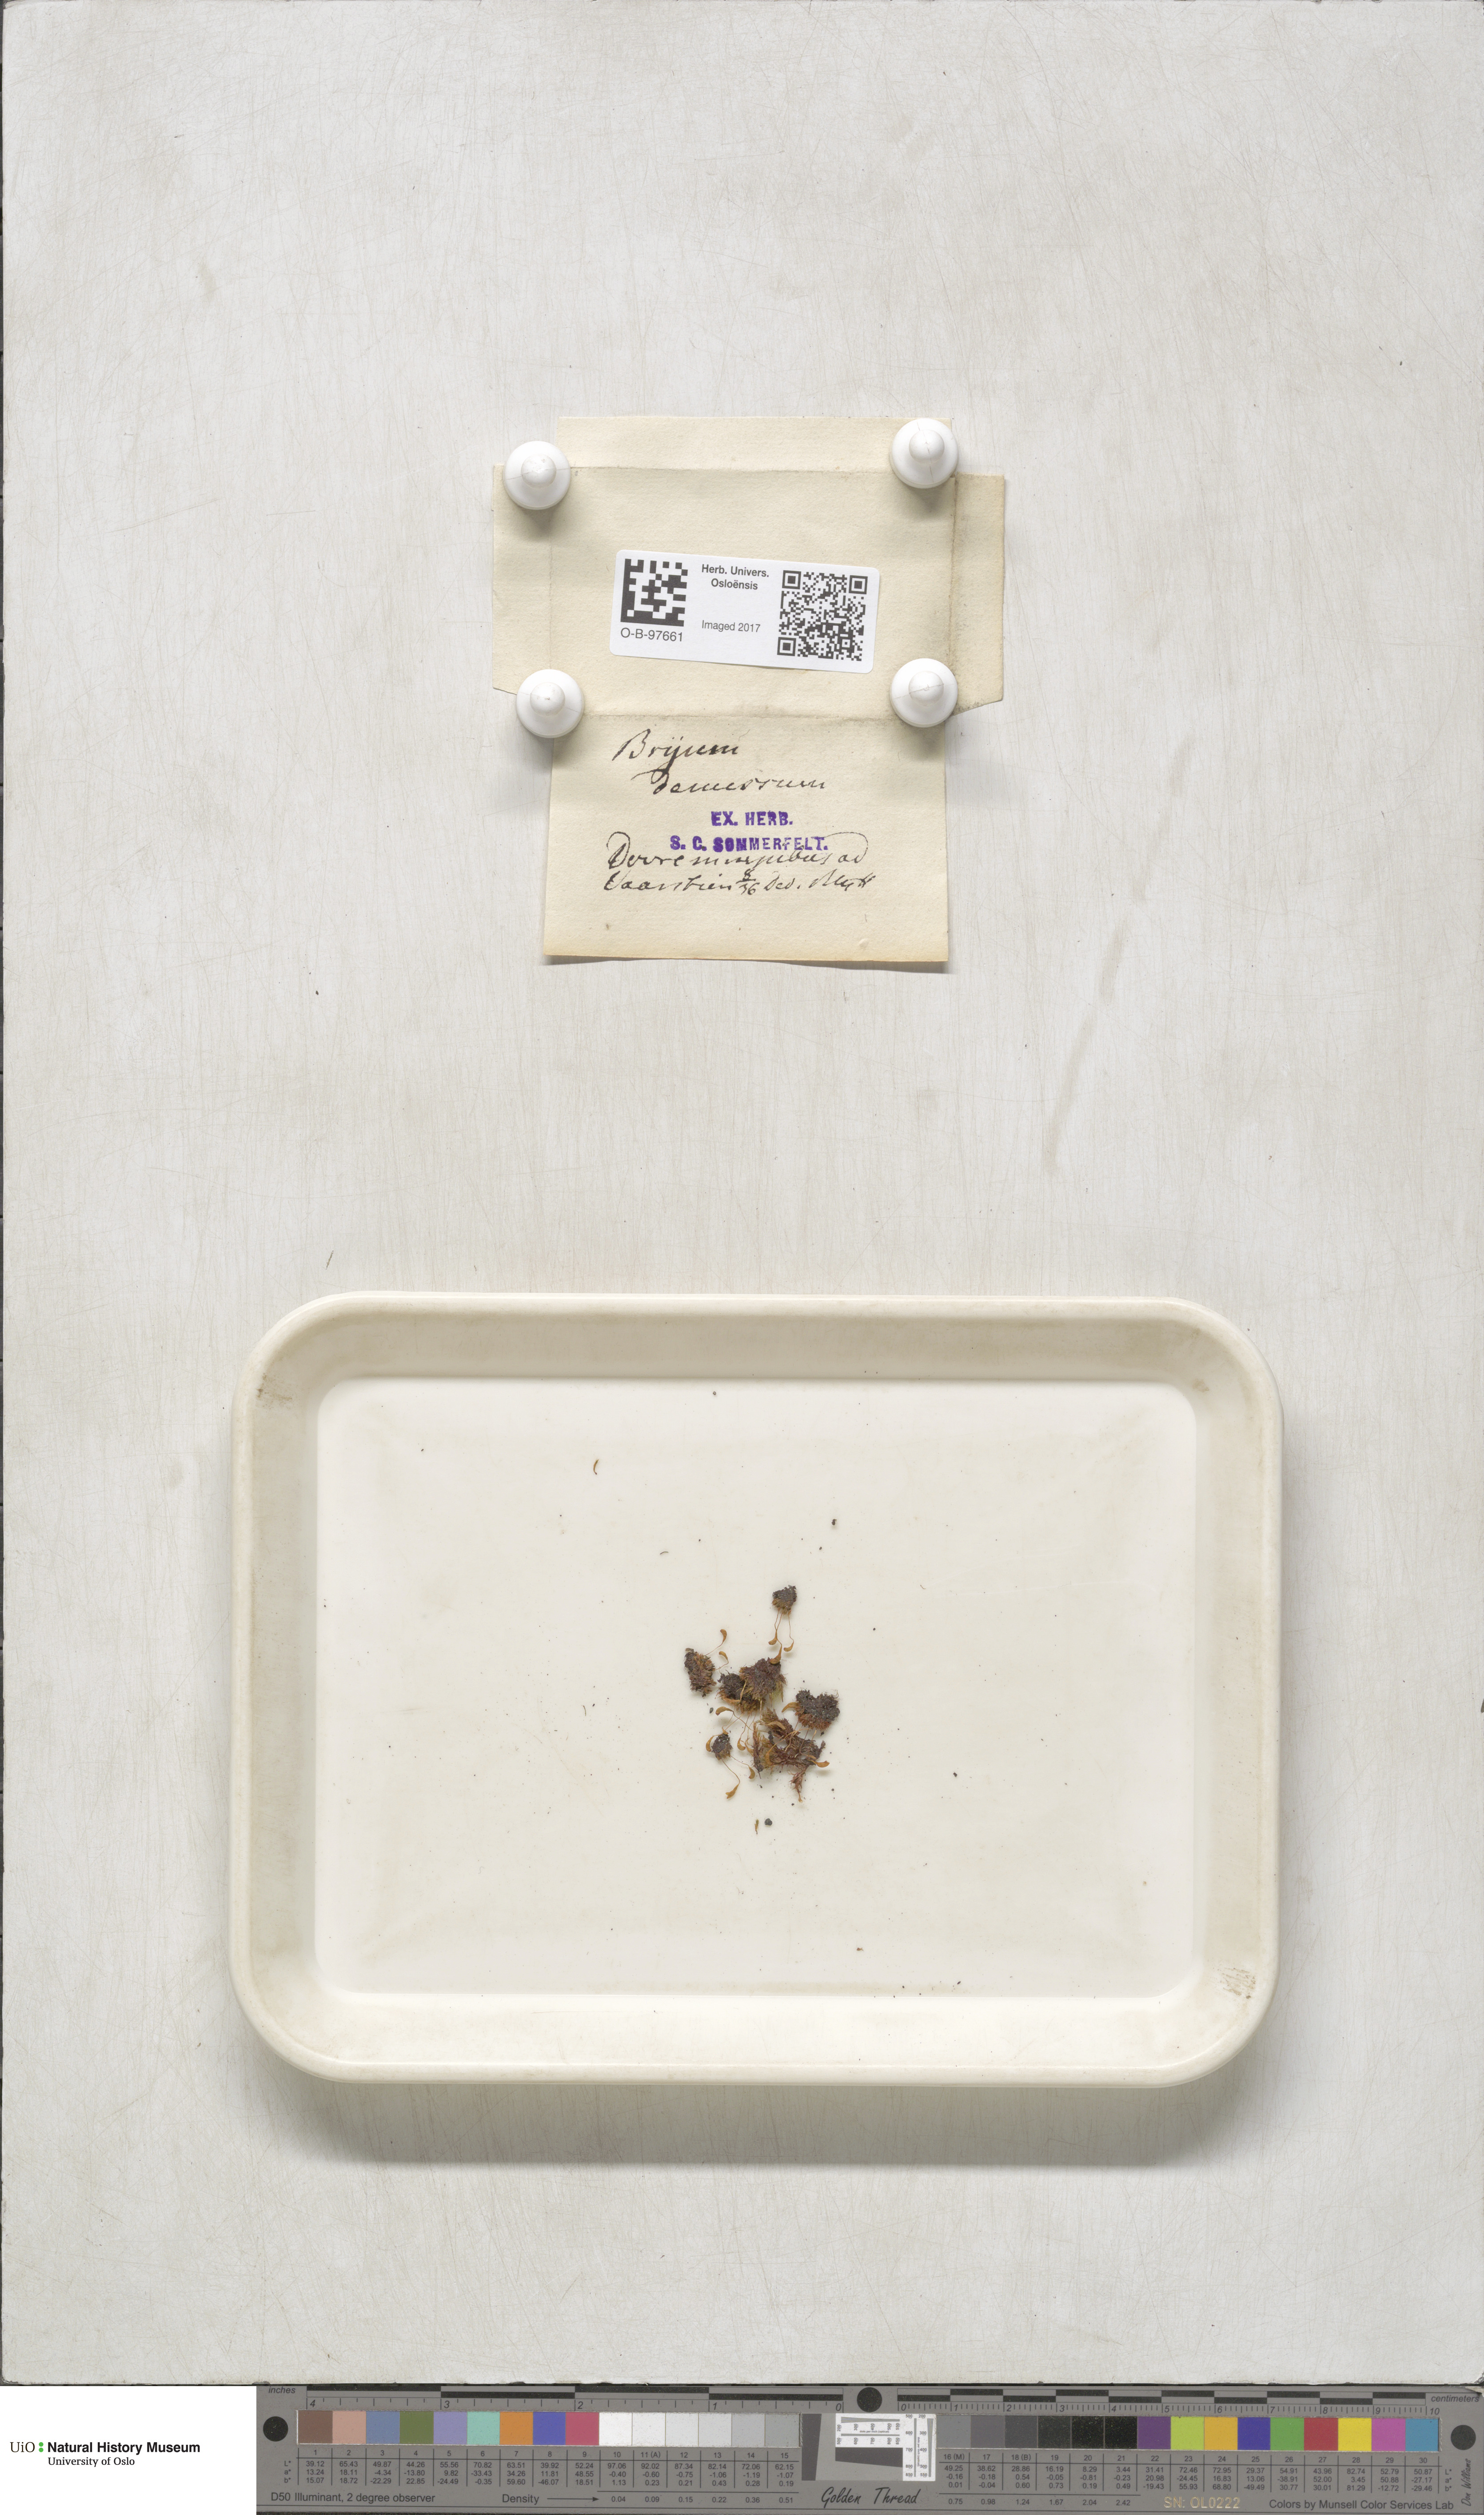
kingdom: Plantae
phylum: Bryophyta
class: Bryopsida
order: Bryales
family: Bryaceae
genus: Plagiobryum
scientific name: Plagiobryum demissum
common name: Drooping hump moss
